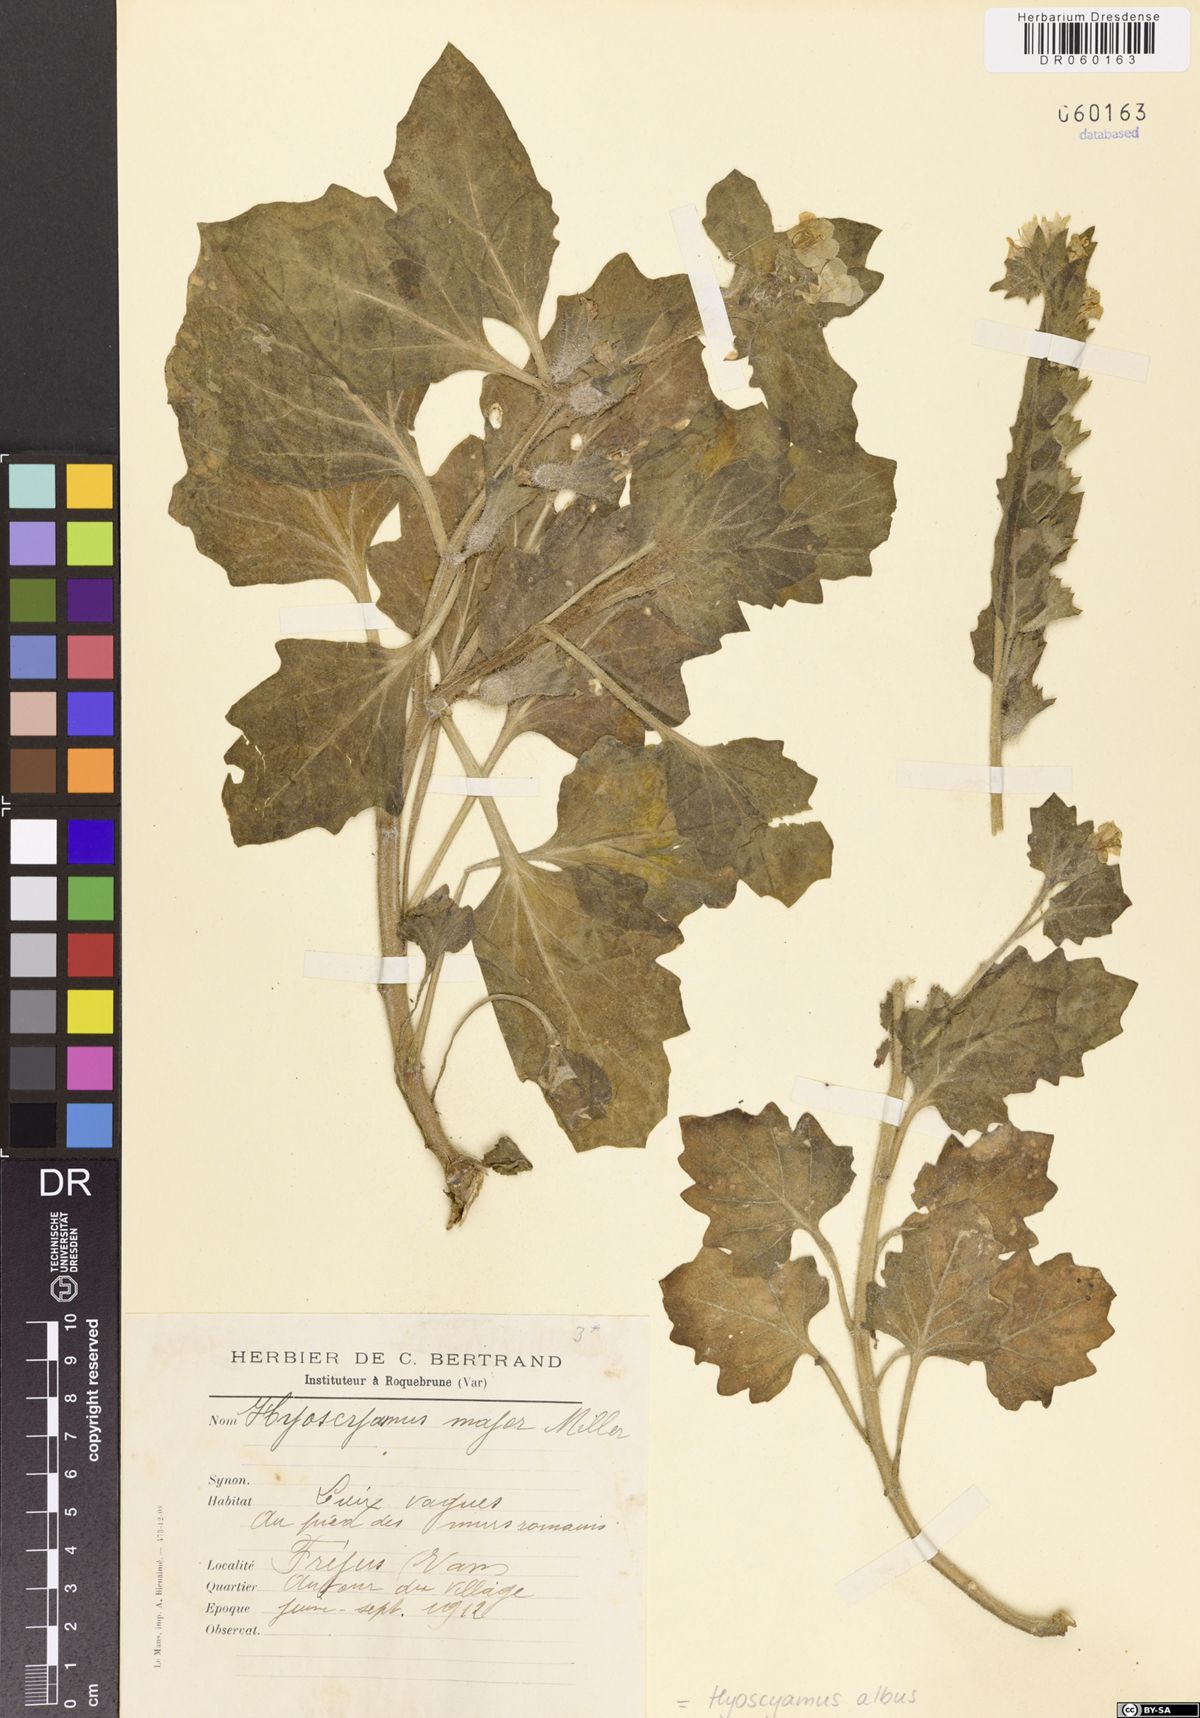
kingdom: Plantae
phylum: Tracheophyta
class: Magnoliopsida
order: Solanales
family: Solanaceae
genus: Hyoscyamus
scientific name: Hyoscyamus albus
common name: White henbane
